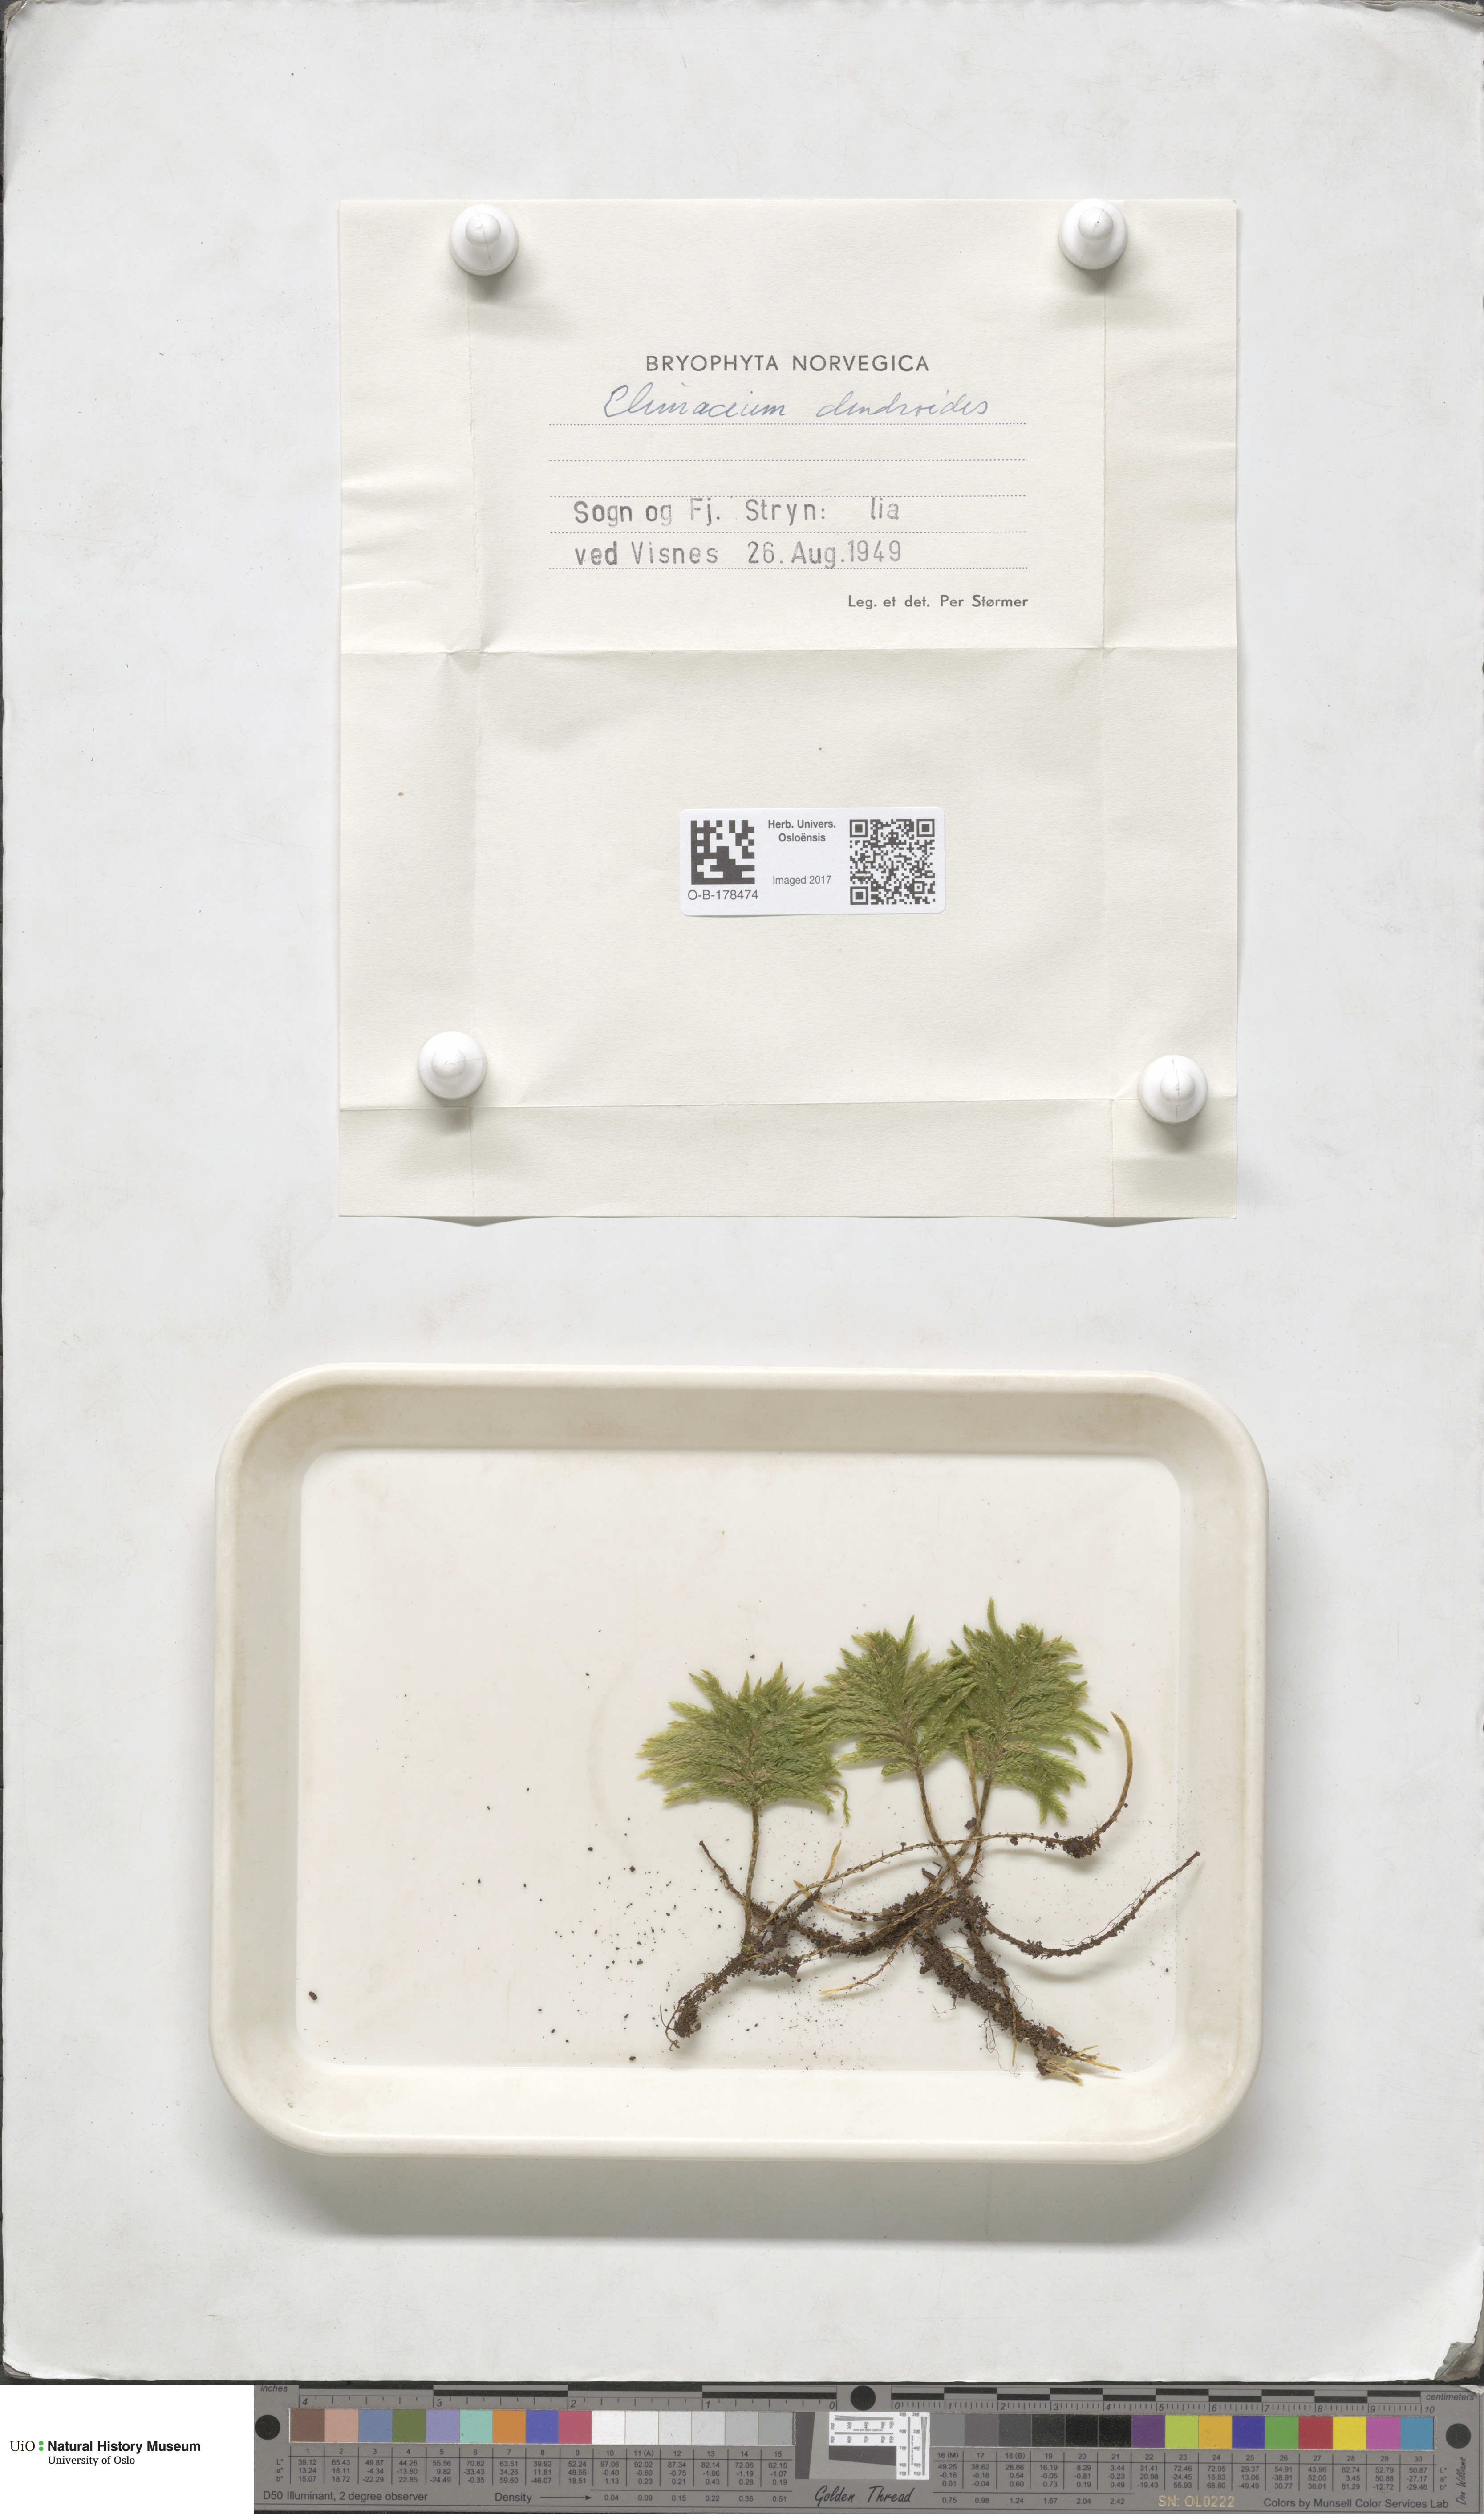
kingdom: Plantae
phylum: Bryophyta
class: Bryopsida
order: Hypnales
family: Climaciaceae
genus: Climacium
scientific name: Climacium dendroides
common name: Northern tree moss
